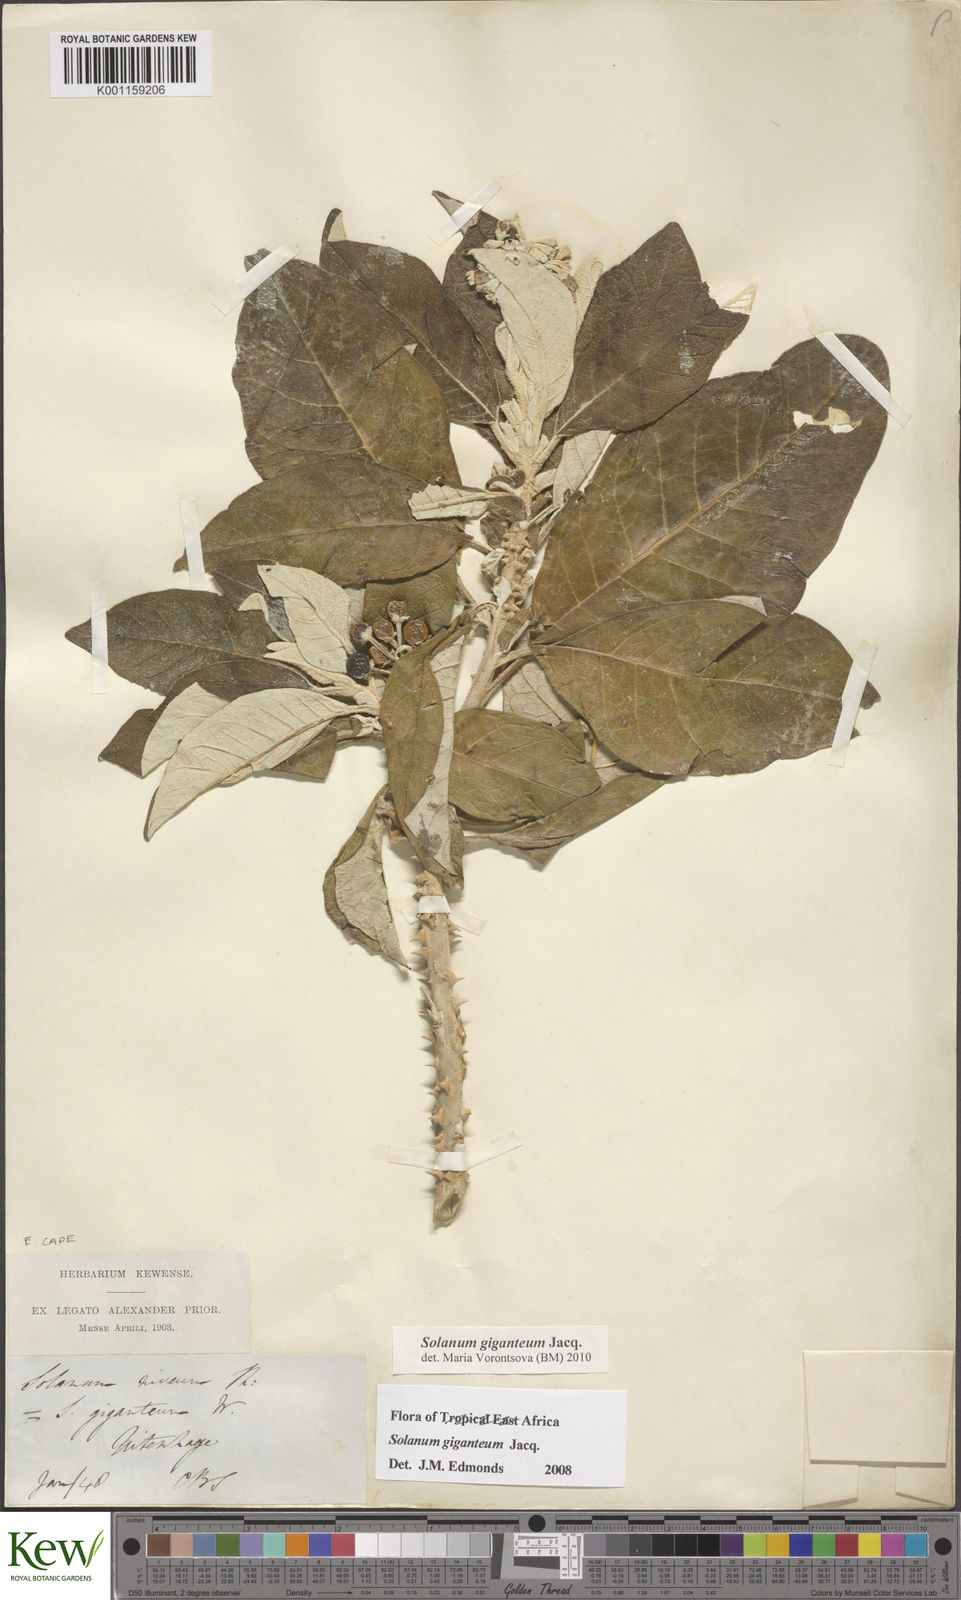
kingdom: Plantae
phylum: Tracheophyta
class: Magnoliopsida
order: Solanales
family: Solanaceae
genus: Solanum
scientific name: Solanum giganteum
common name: Healing-leaf-tree
